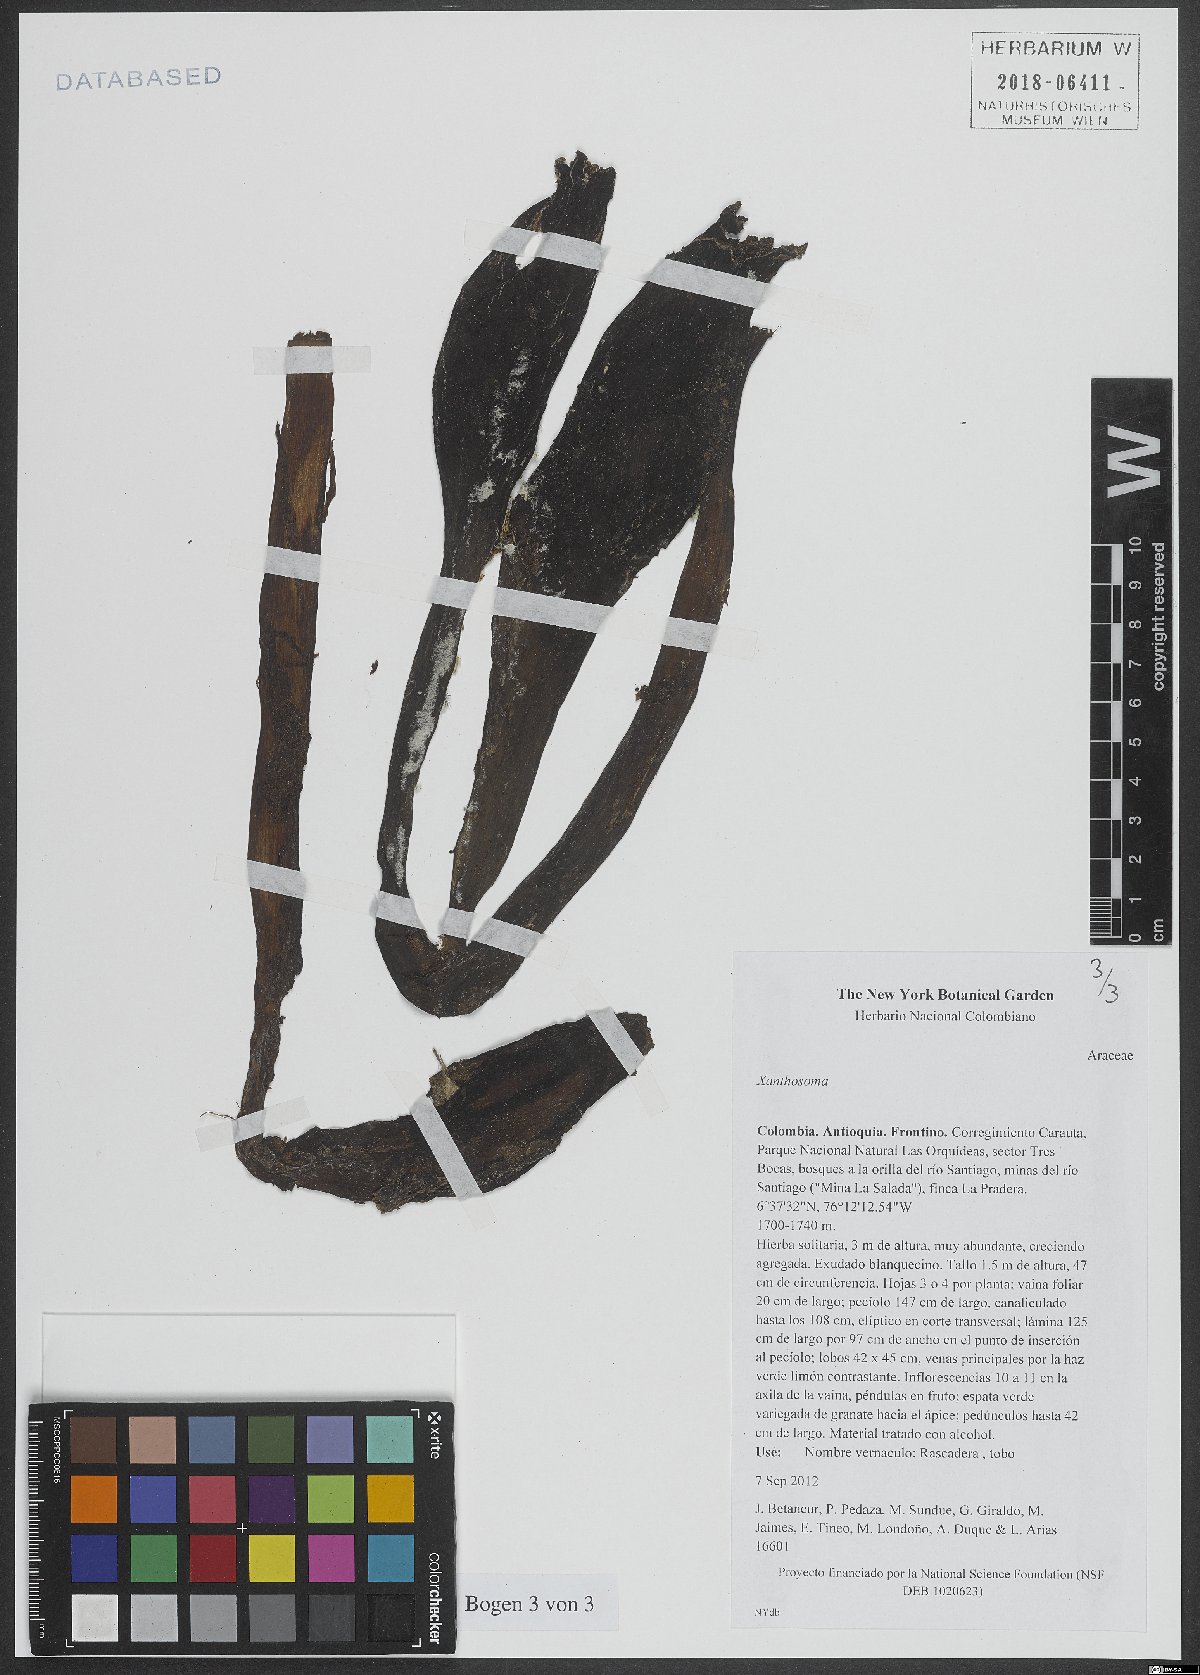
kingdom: Plantae
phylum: Tracheophyta
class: Liliopsida
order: Alismatales
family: Araceae
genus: Xanthosoma
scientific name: Xanthosoma
